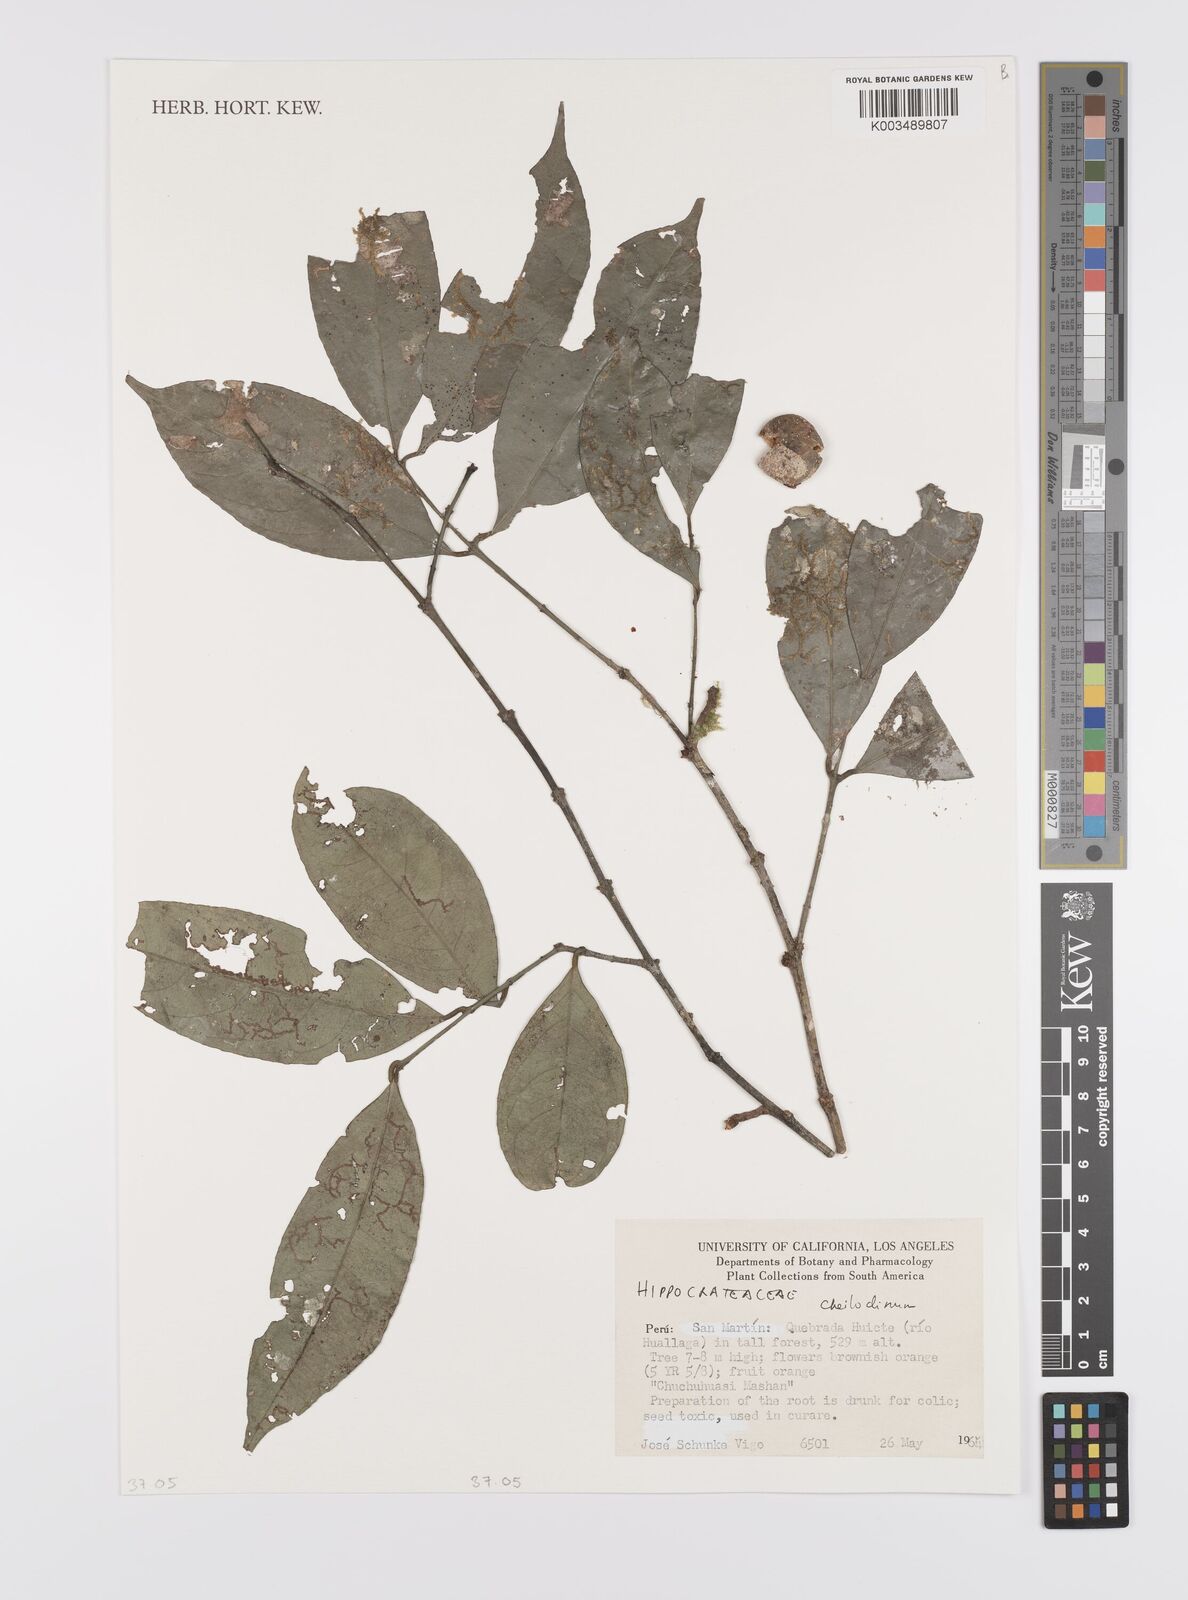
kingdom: Plantae
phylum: Tracheophyta
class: Magnoliopsida
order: Celastrales
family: Celastraceae
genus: Cheiloclinium
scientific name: Cheiloclinium
